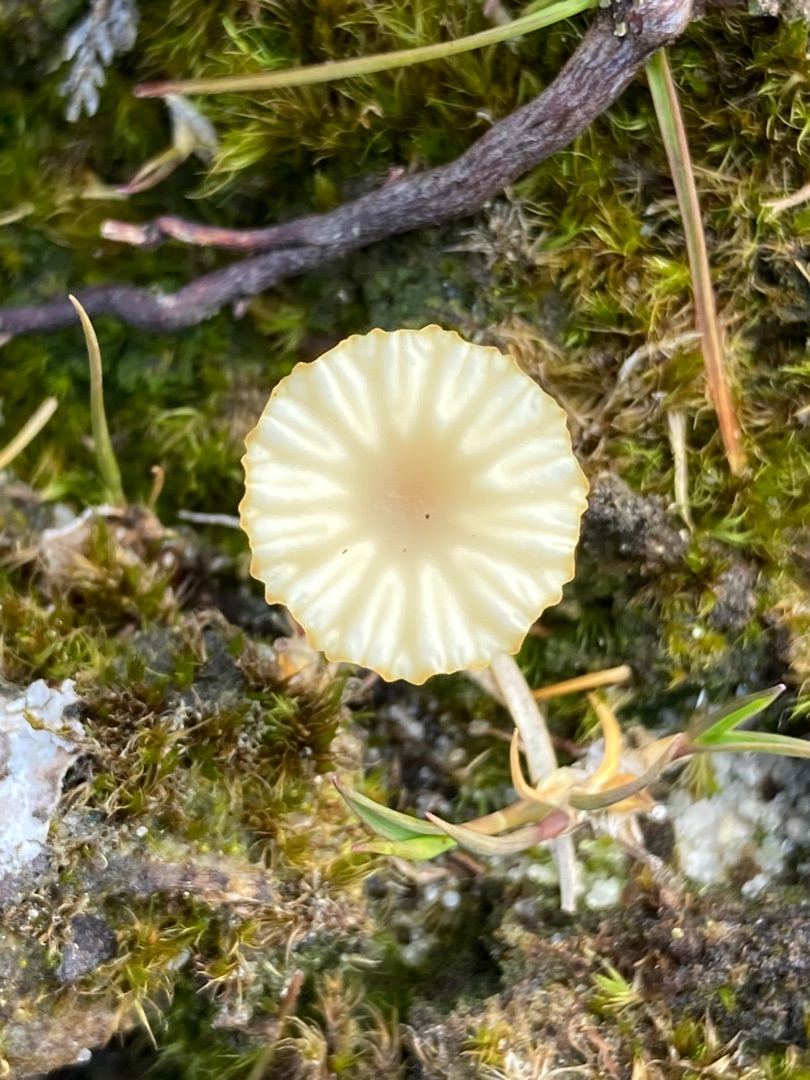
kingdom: Fungi
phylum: Basidiomycota
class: Agaricomycetes
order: Agaricales
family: Hygrophoraceae
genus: Lichenomphalia
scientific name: Lichenomphalia umbellifera
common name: Tørve-lavhat
